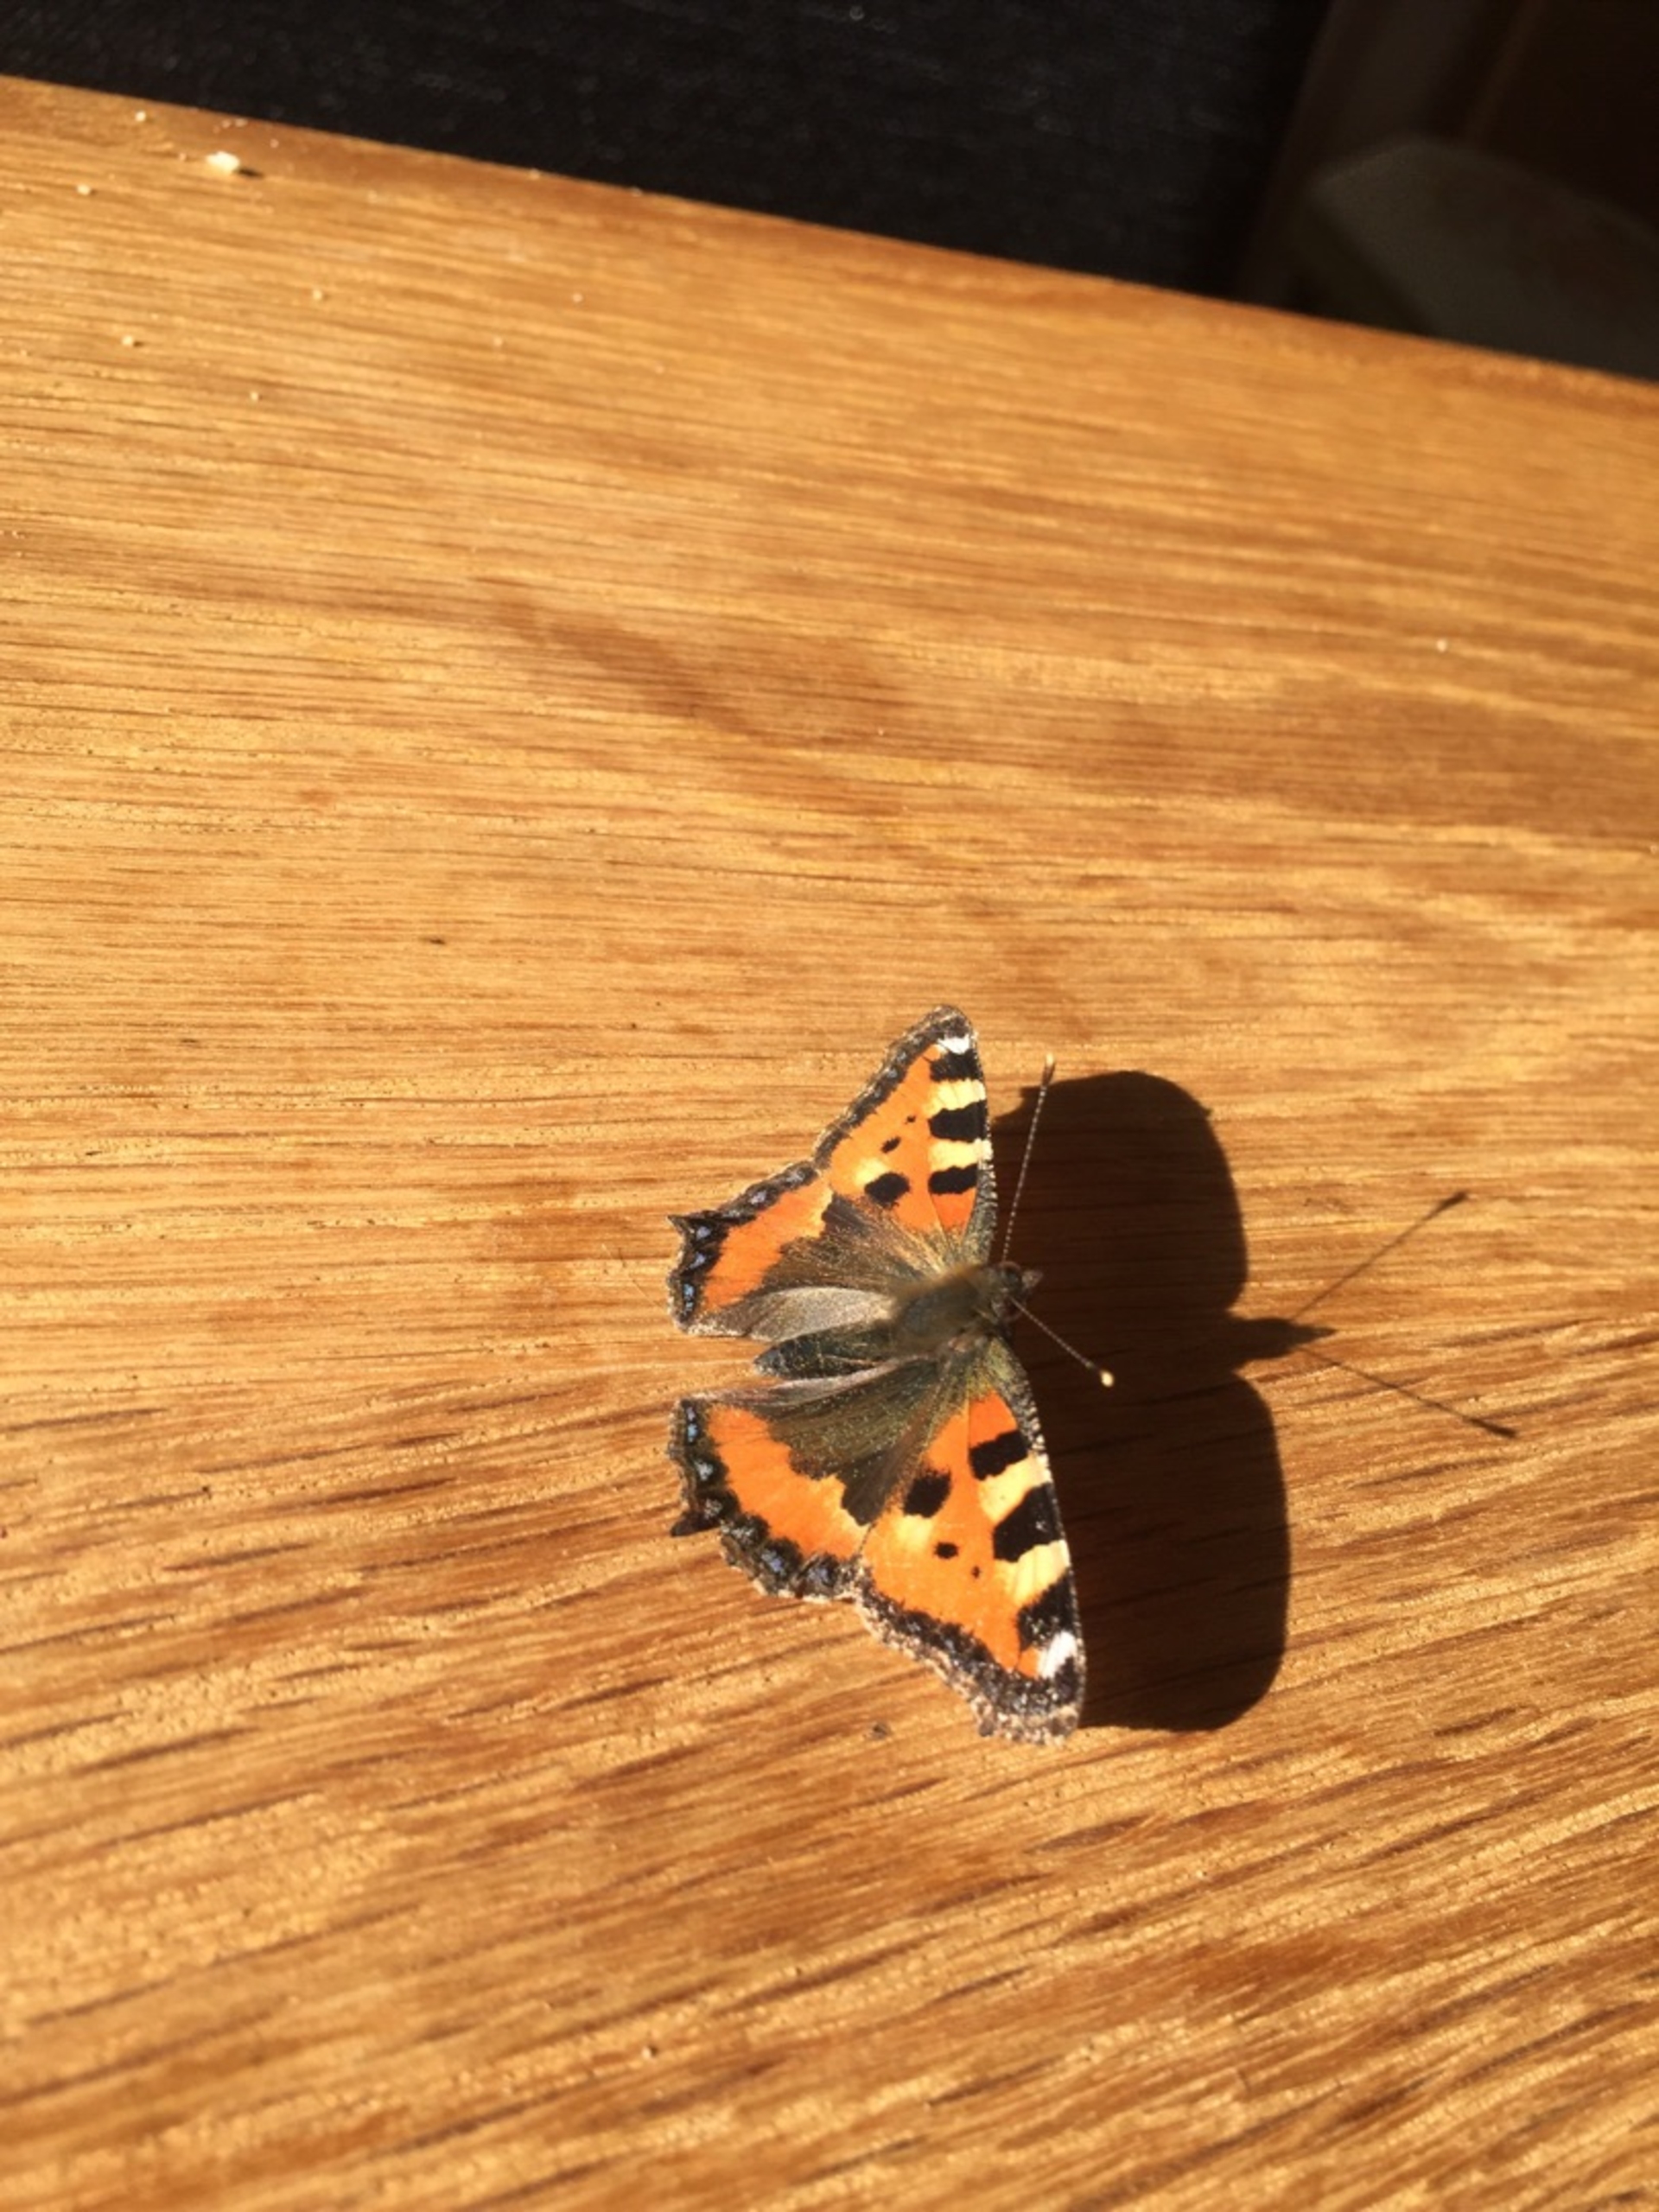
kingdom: Animalia
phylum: Arthropoda
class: Insecta
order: Lepidoptera
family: Nymphalidae
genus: Aglais
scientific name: Aglais urticae
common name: Nældens takvinge
